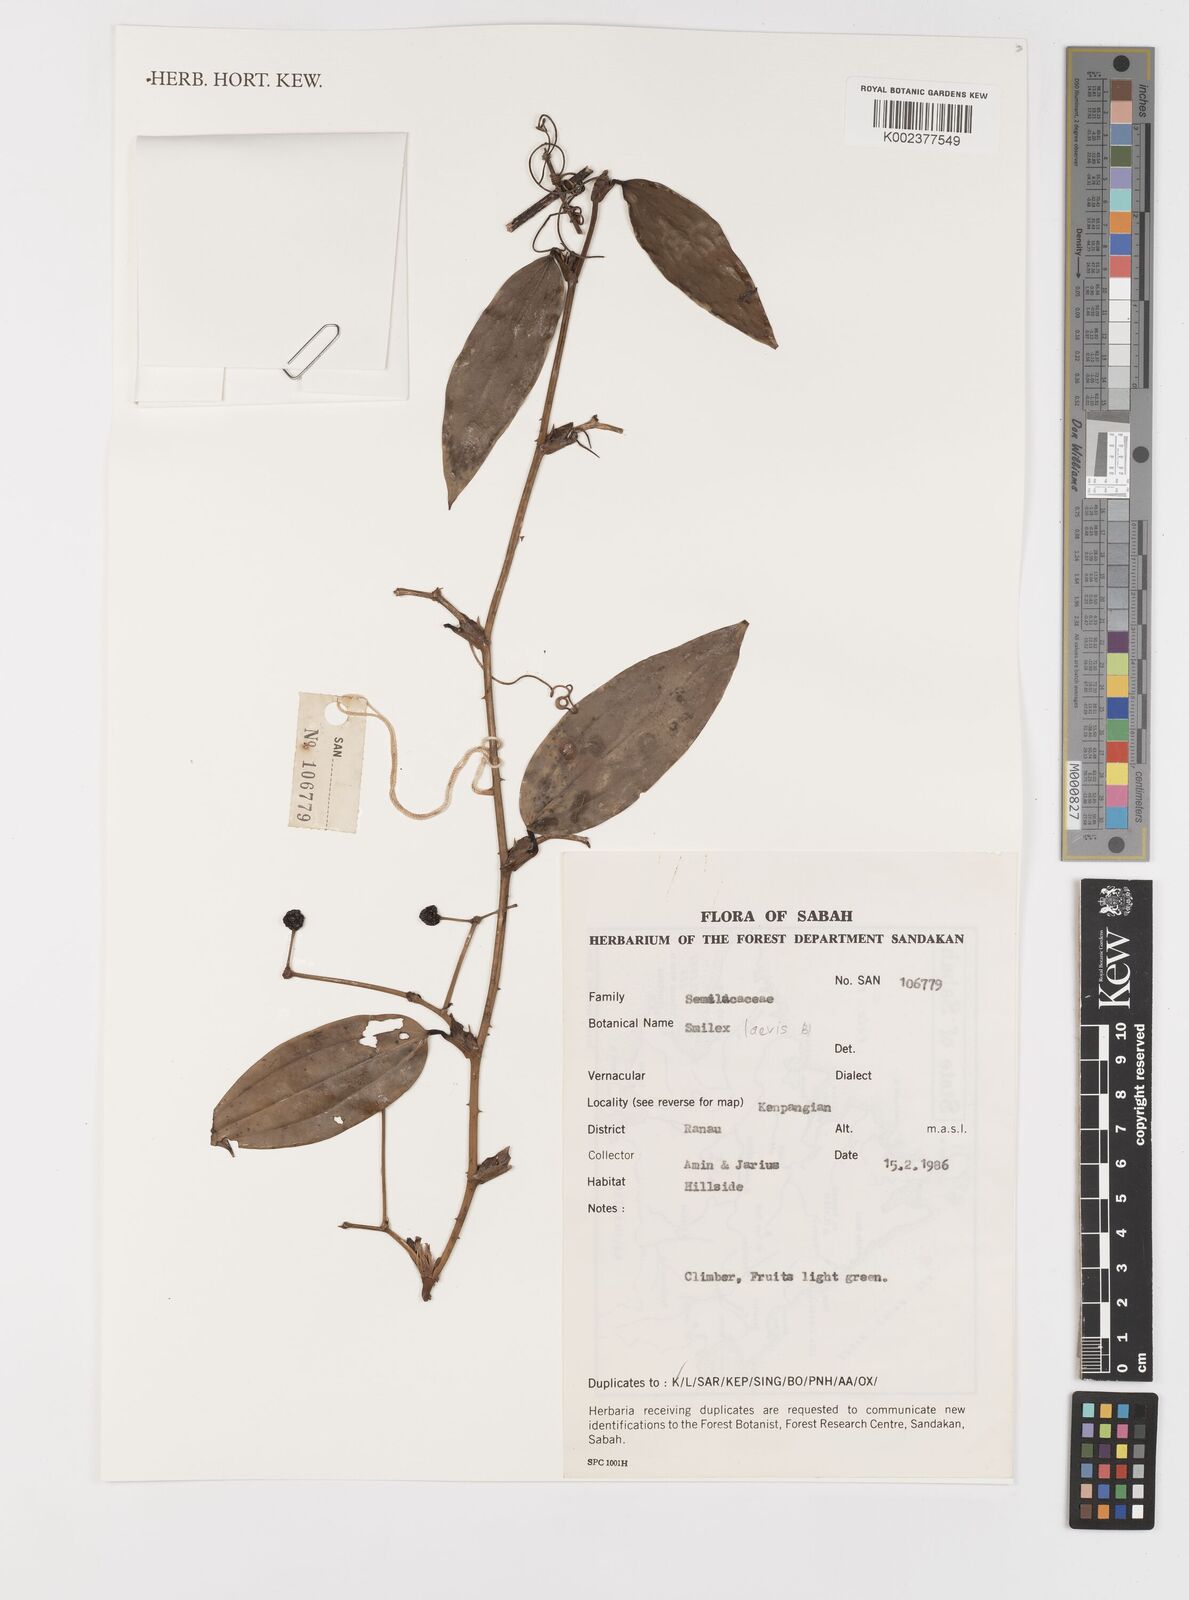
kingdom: Plantae
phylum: Tracheophyta
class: Liliopsida
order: Liliales
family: Smilacaceae
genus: Smilax
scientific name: Smilax laevis
